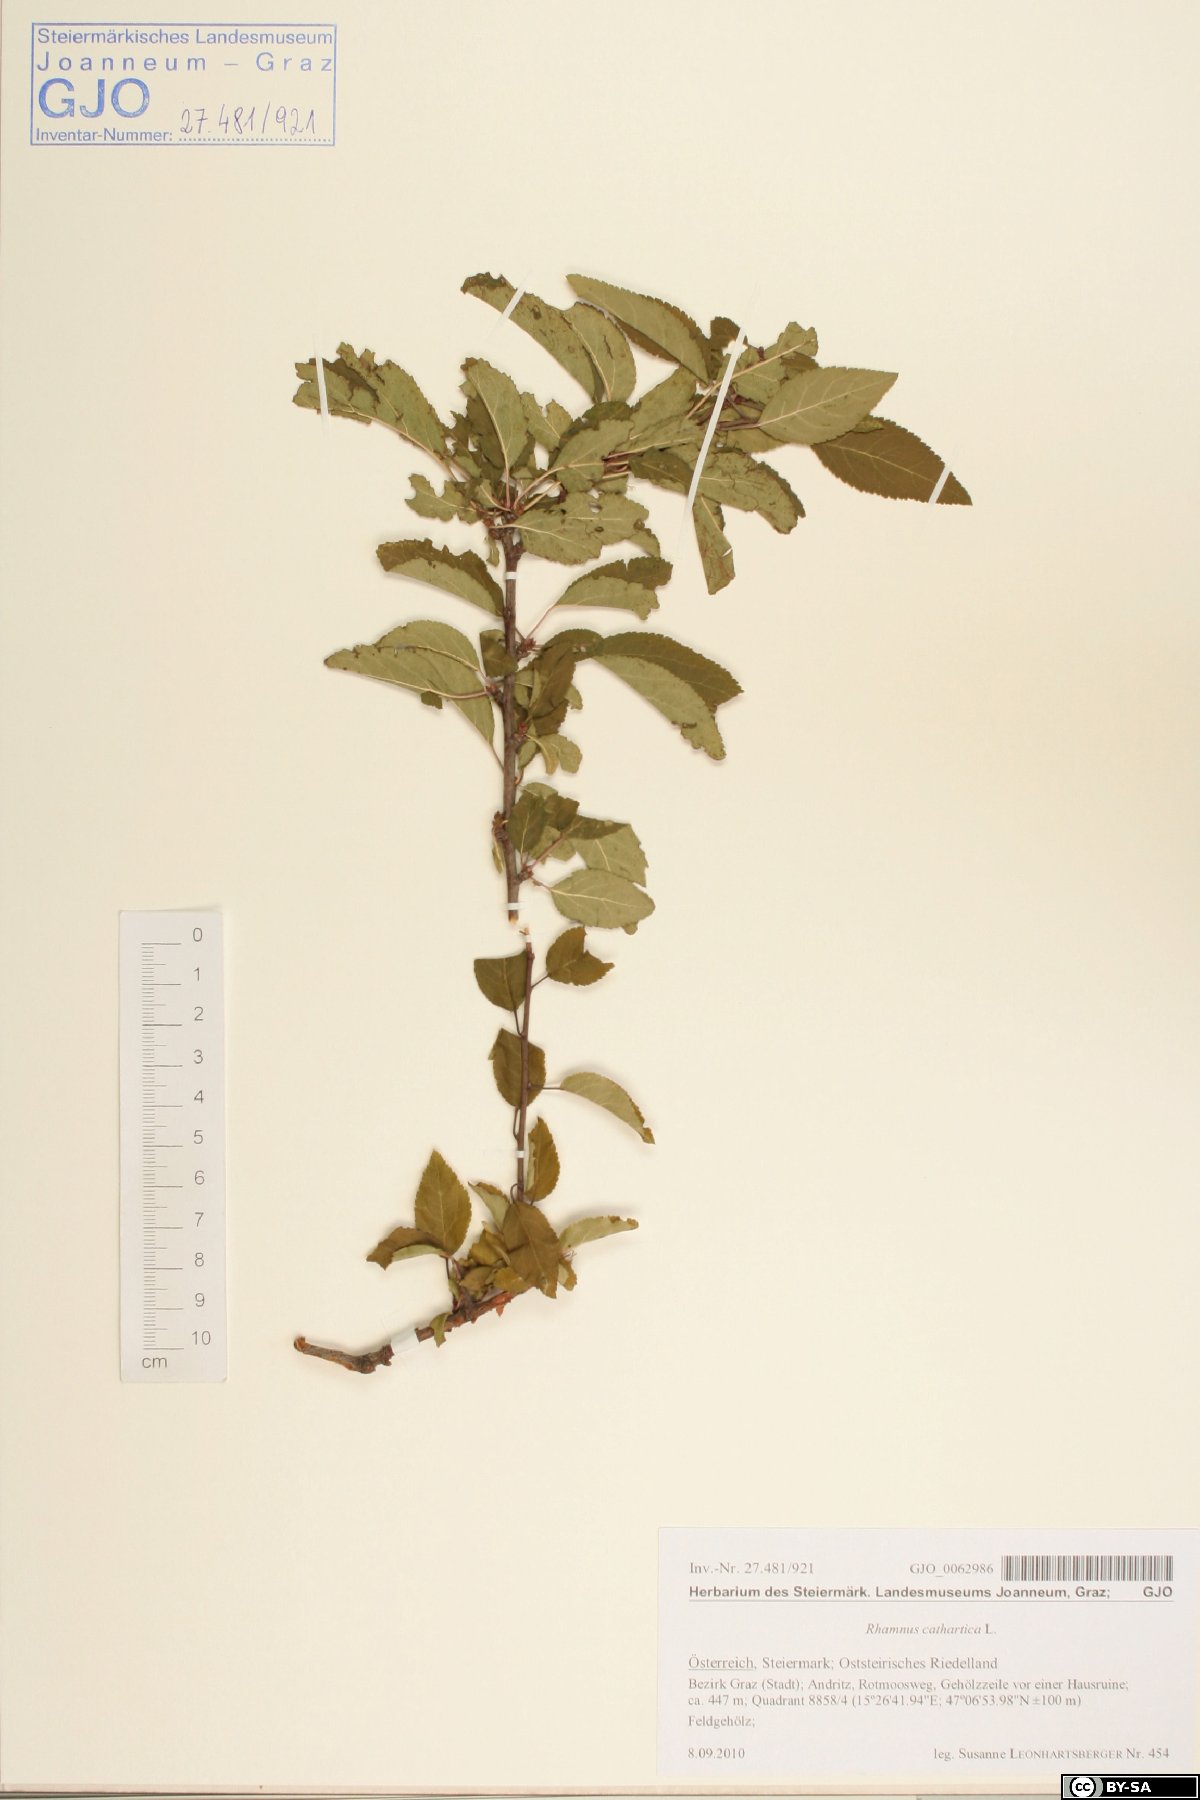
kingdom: Plantae
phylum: Tracheophyta
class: Magnoliopsida
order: Rosales
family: Rhamnaceae
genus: Rhamnus
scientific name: Rhamnus cathartica
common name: Common buckthorn
